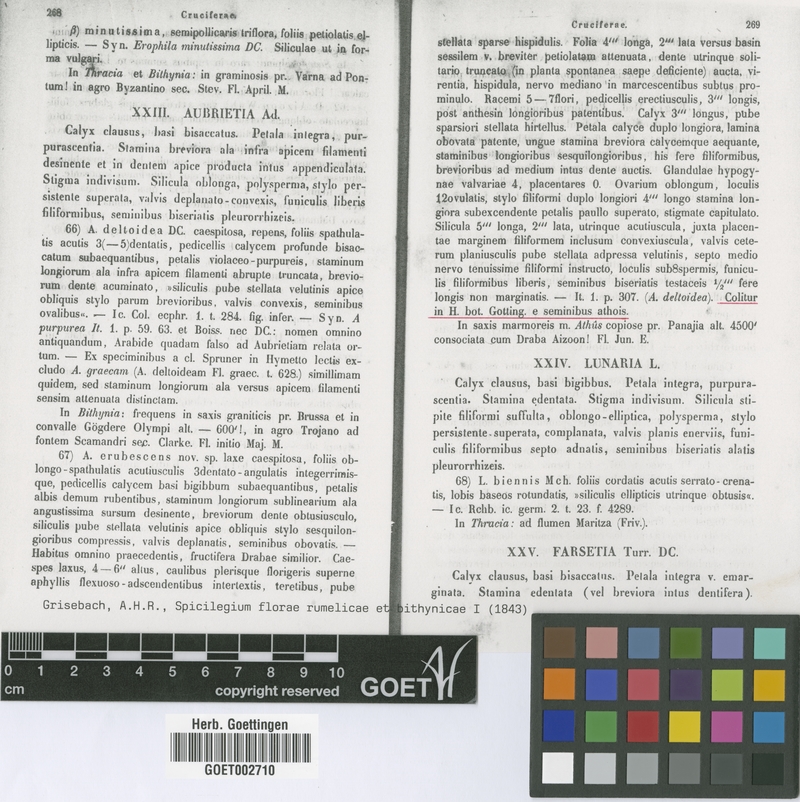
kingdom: Plantae
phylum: Tracheophyta
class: Magnoliopsida
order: Brassicales
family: Brassicaceae
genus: Aubrieta
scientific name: Aubrieta erubescens
